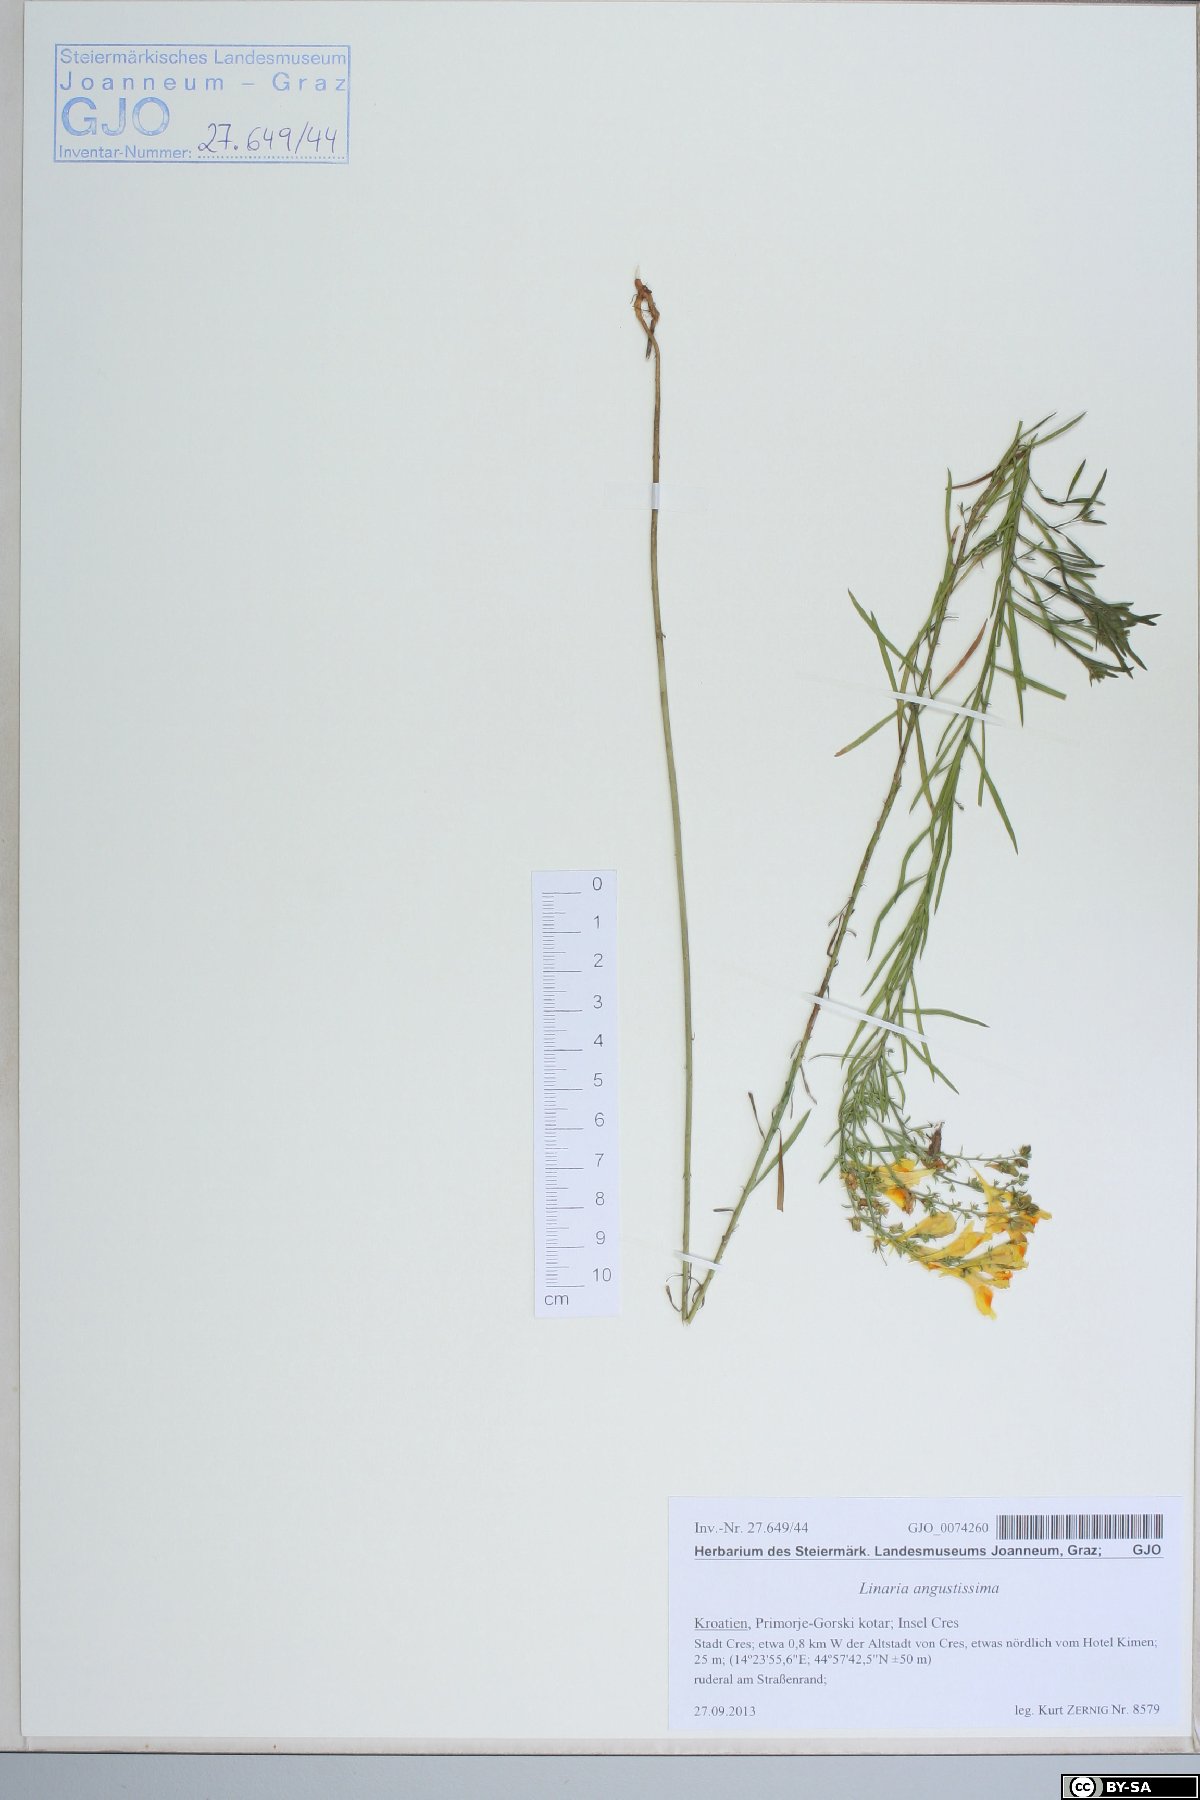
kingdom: Plantae
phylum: Tracheophyta
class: Magnoliopsida
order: Lamiales
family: Plantaginaceae
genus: Linaria
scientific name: Linaria angustissima
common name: Italian toadflax
